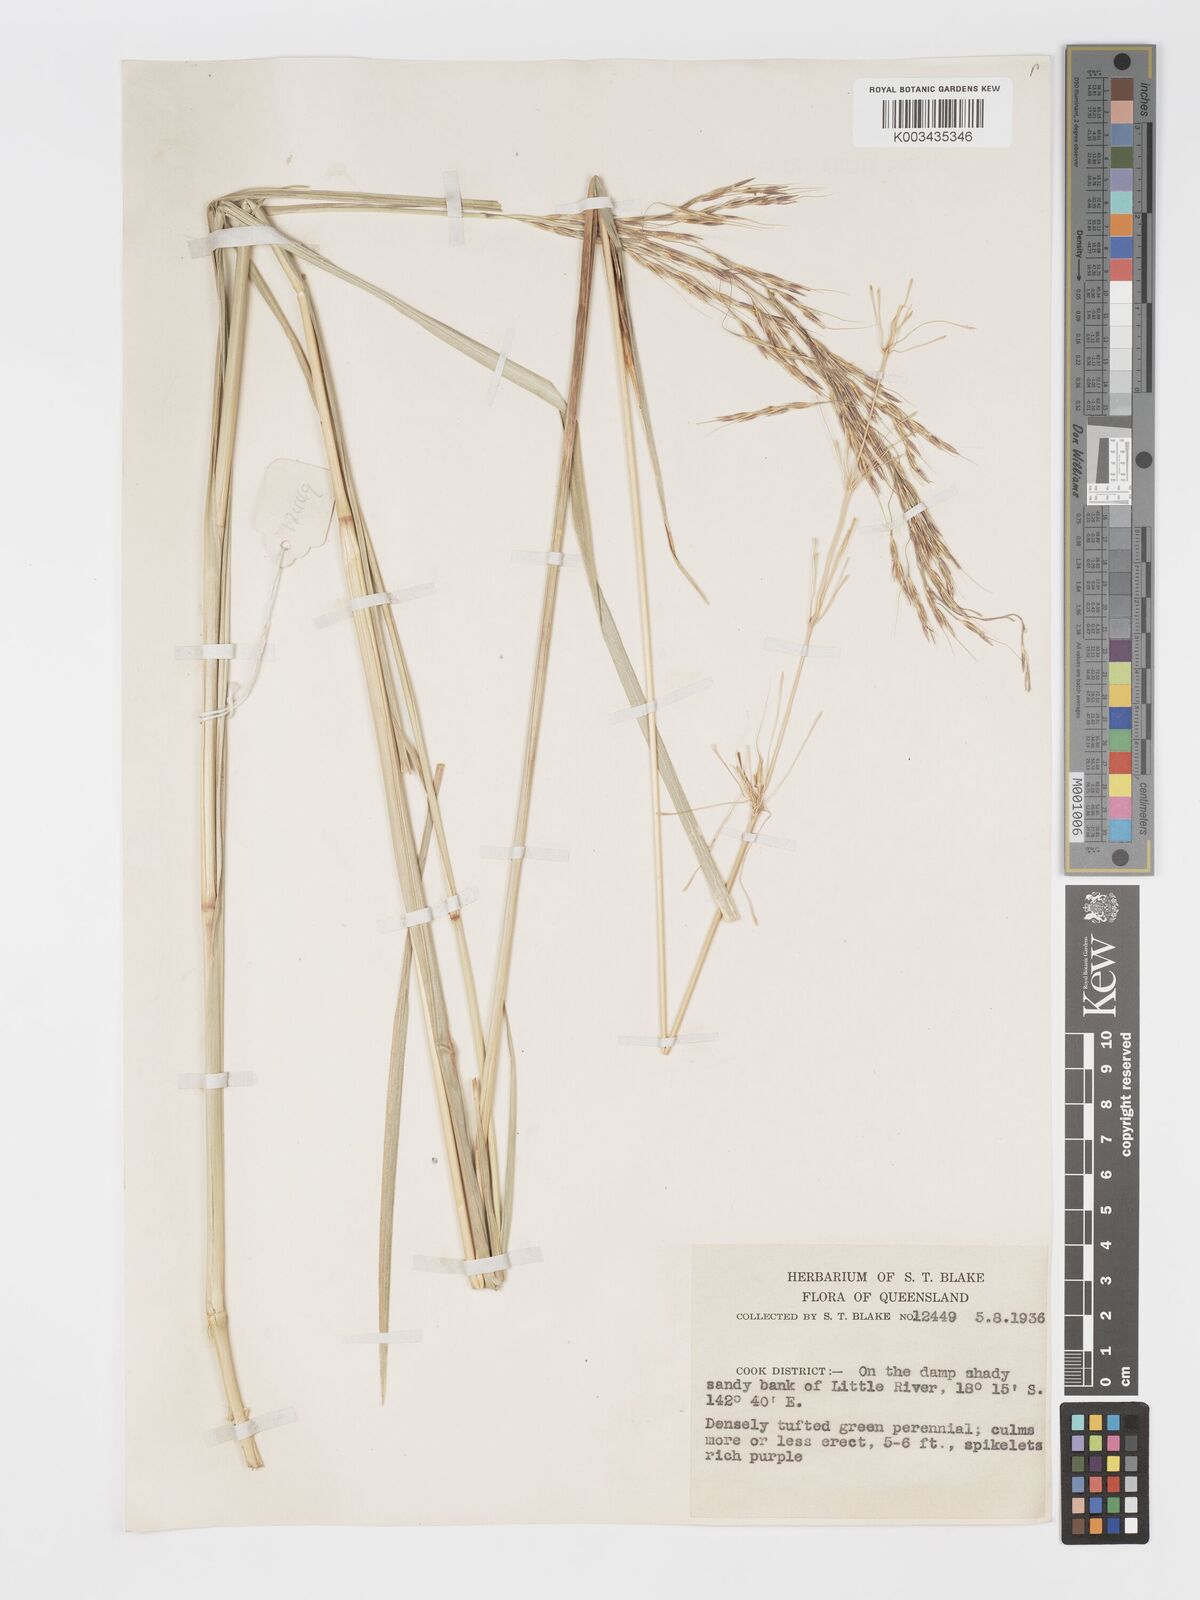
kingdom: Plantae
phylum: Tracheophyta
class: Liliopsida
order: Poales
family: Poaceae
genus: Vetiveria
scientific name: Vetiveria
